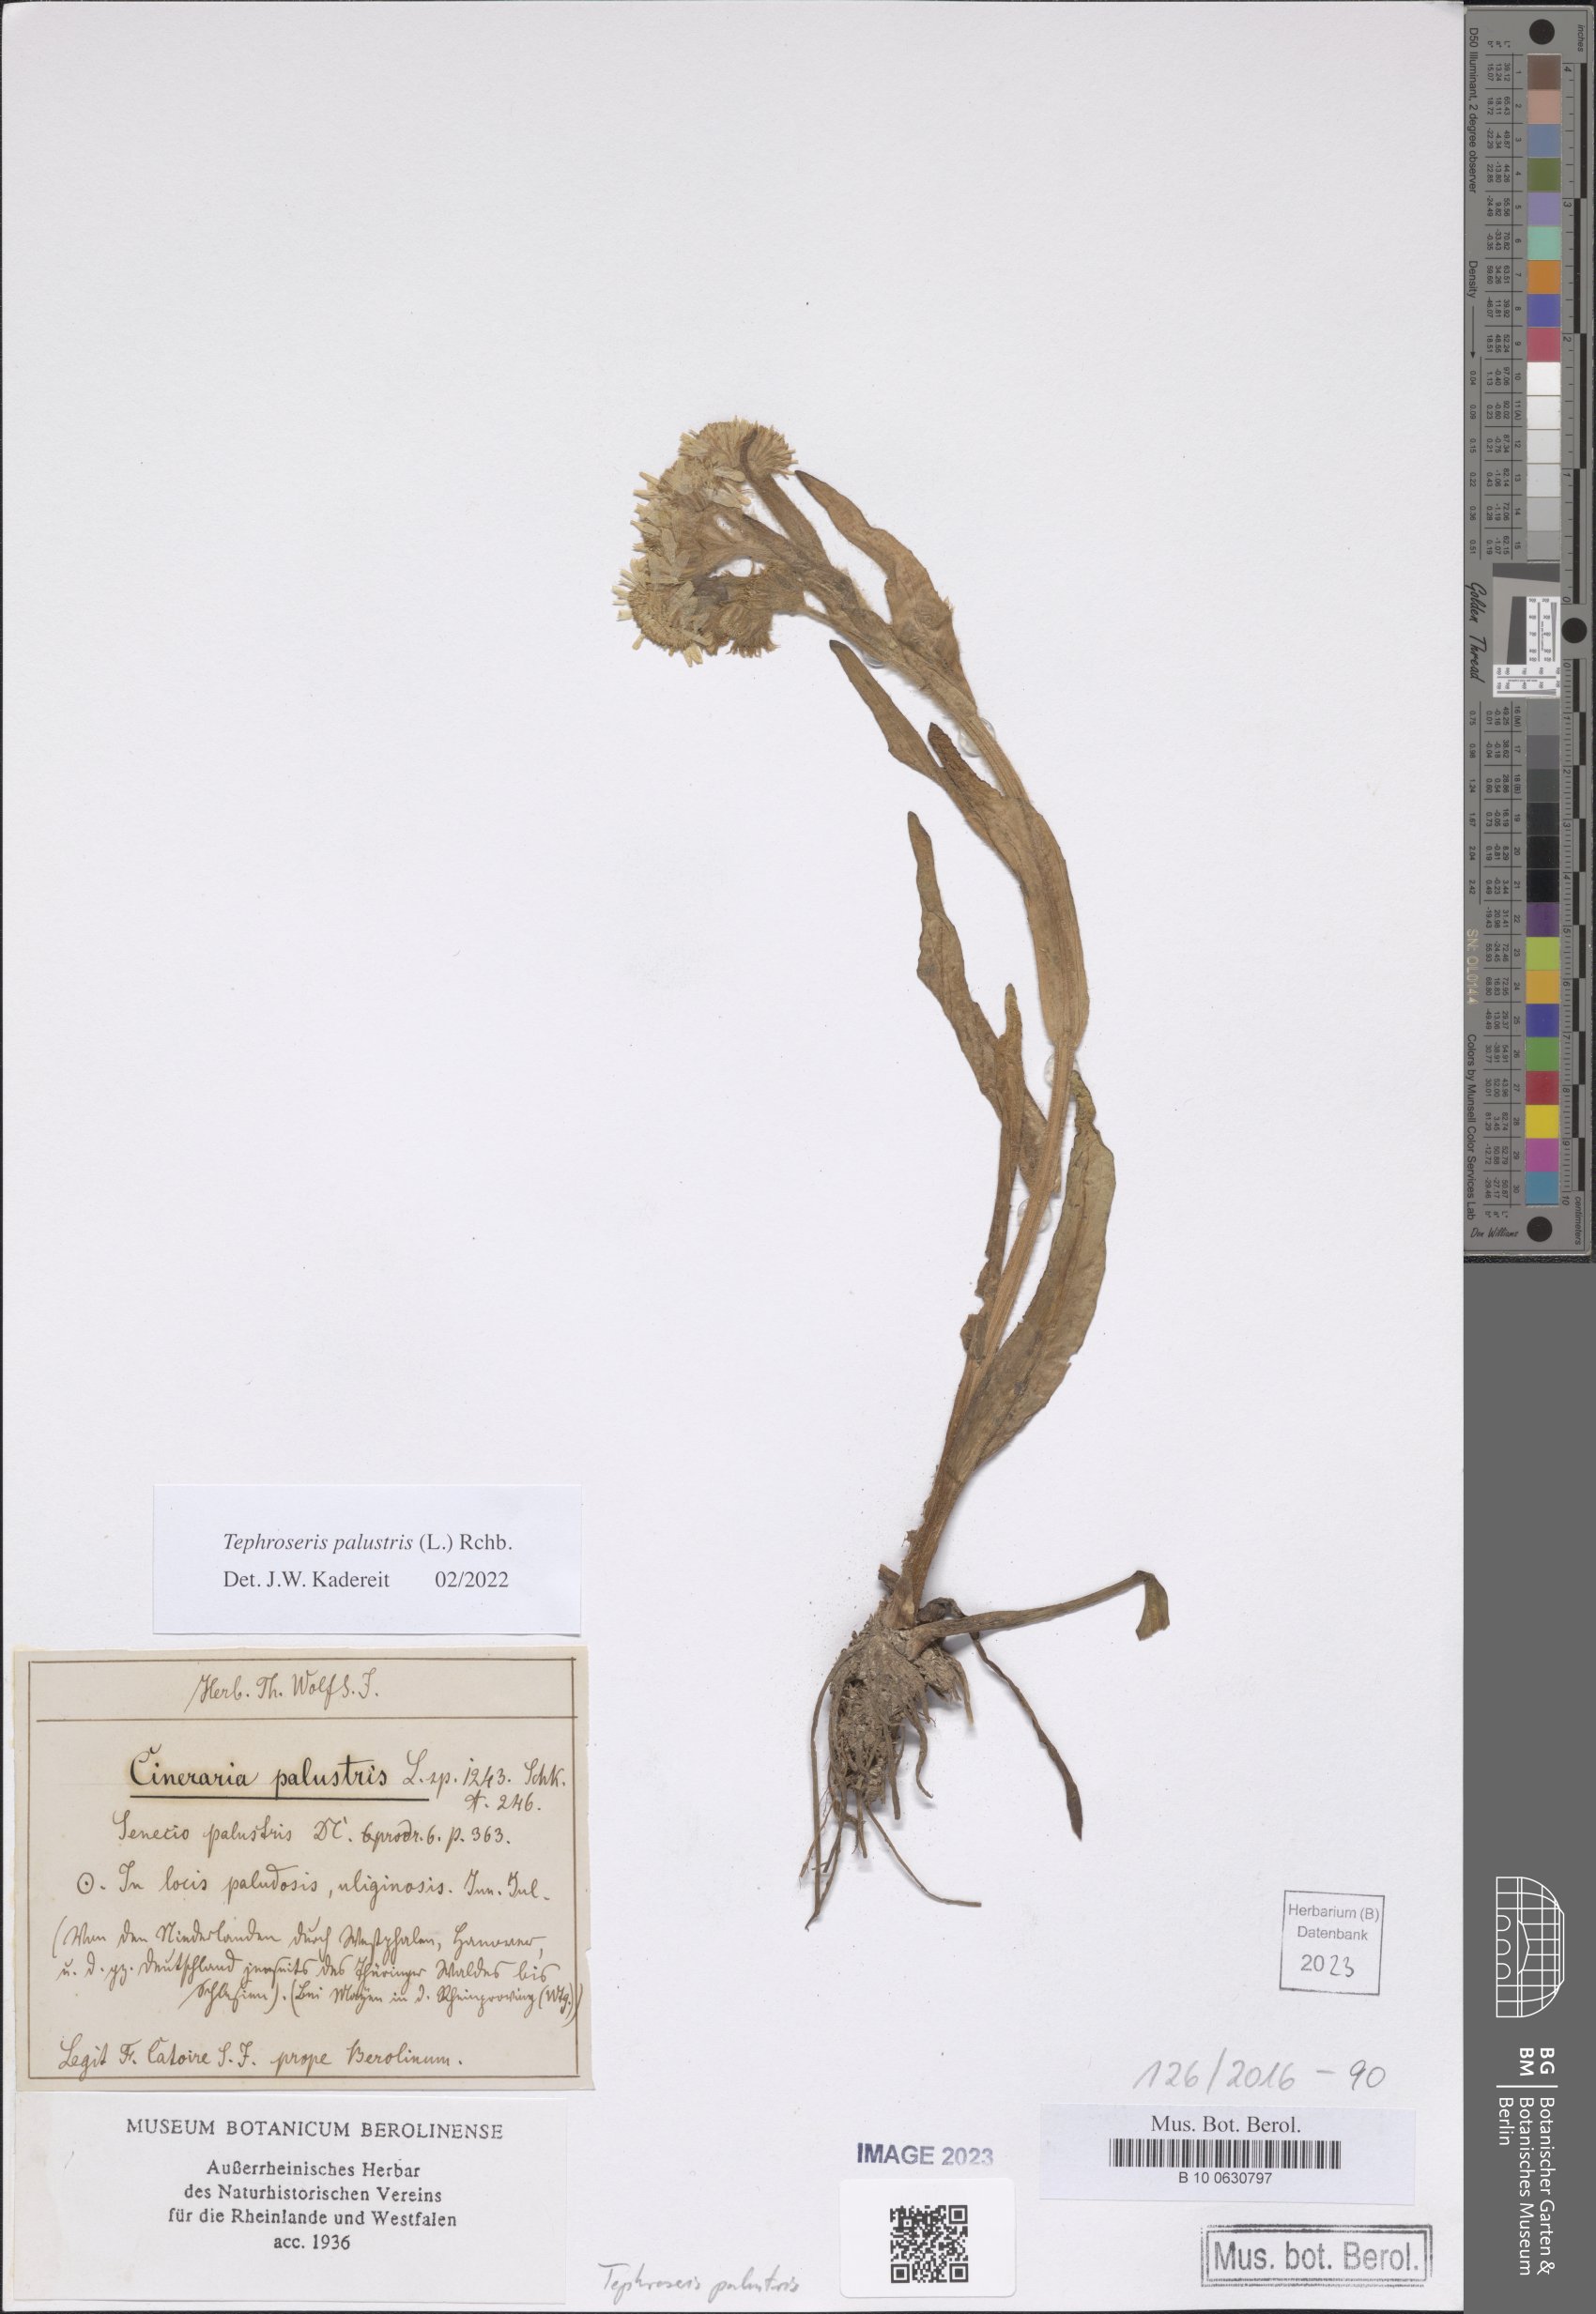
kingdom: Plantae
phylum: Tracheophyta
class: Magnoliopsida
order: Asterales
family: Asteraceae
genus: Tephroseris
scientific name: Tephroseris palustris
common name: Marsh fleawort
